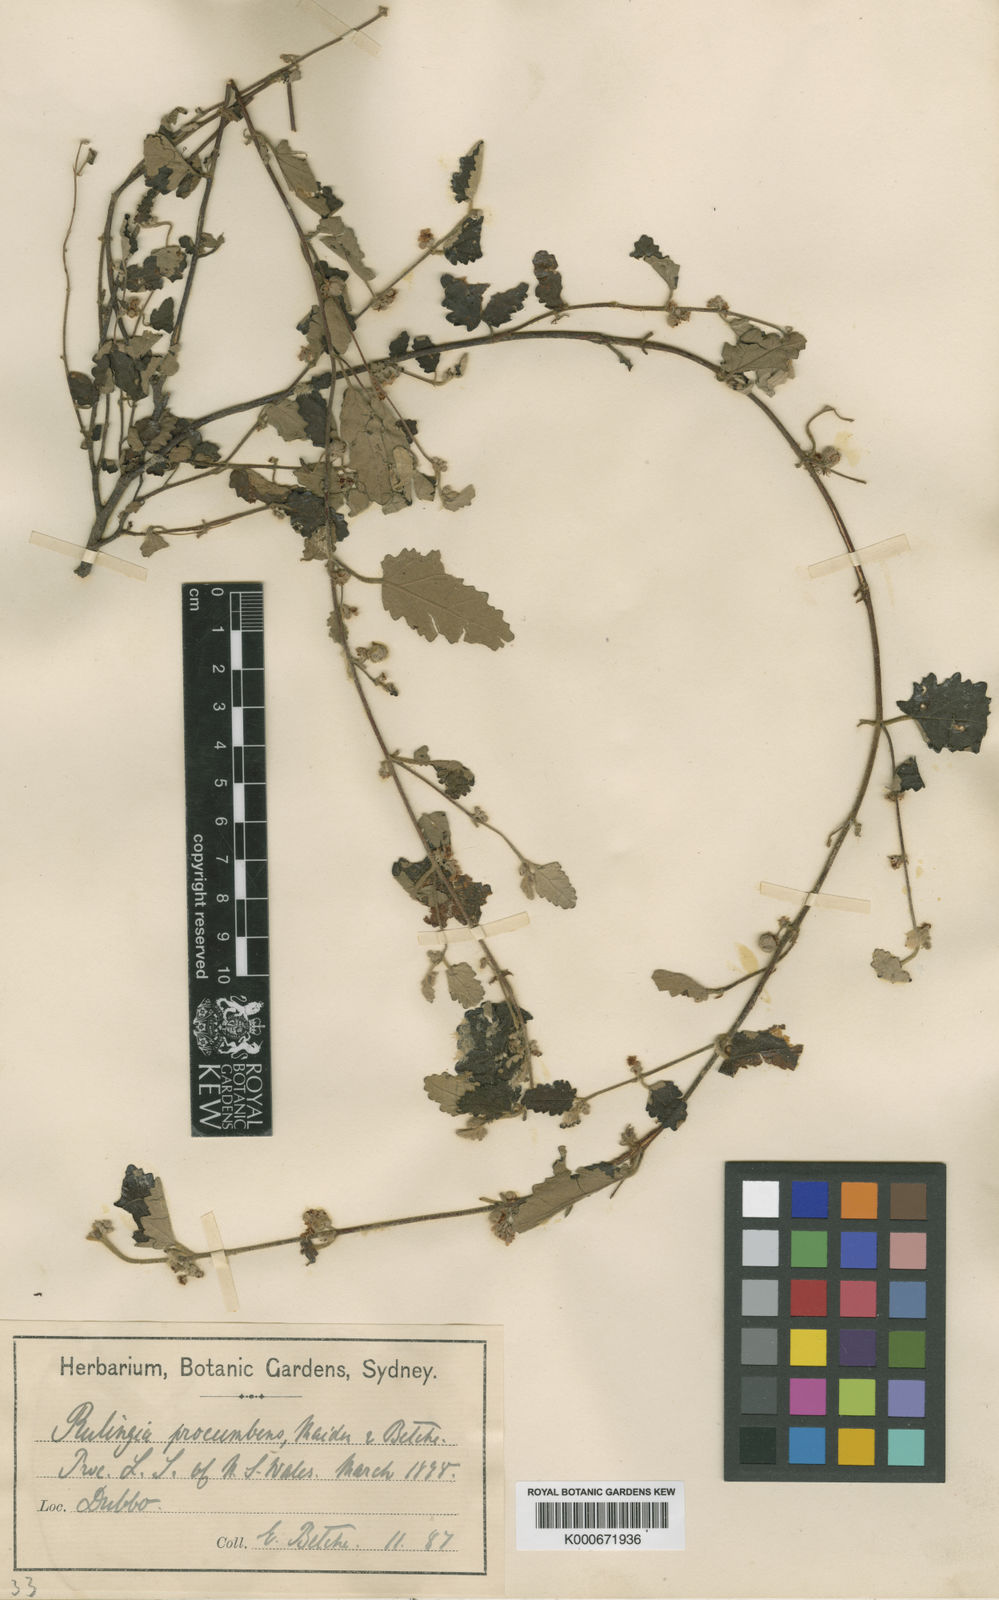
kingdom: Plantae
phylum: Tracheophyta
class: Magnoliopsida
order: Malvales
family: Malvaceae
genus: Androcalva
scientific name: Androcalva procumbens
